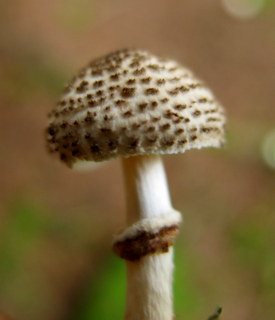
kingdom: Fungi
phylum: Basidiomycota
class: Agaricomycetes
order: Agaricales
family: Agaricaceae
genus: Lepiota
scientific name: Lepiota felina
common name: sortskællet parasolhat
